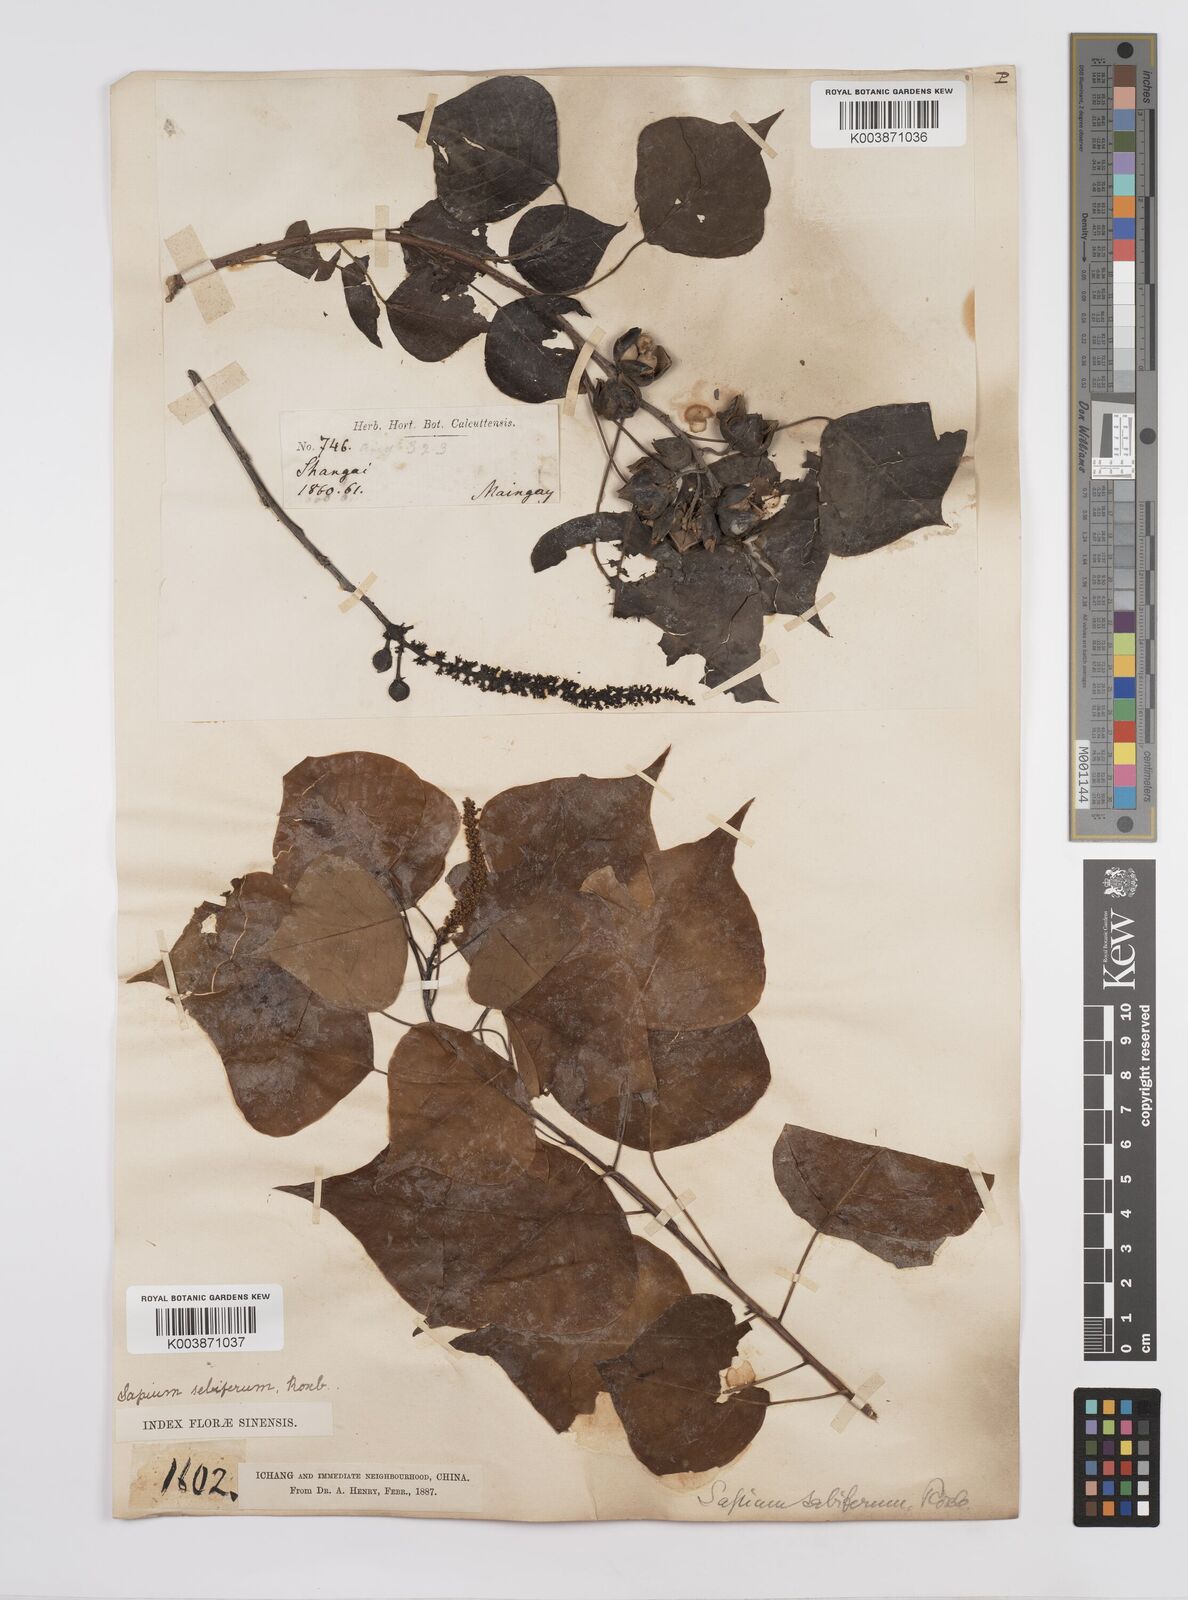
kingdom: Plantae
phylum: Tracheophyta
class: Magnoliopsida
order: Malpighiales
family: Euphorbiaceae
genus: Triadica
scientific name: Triadica sebifera
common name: Chinese tallow
